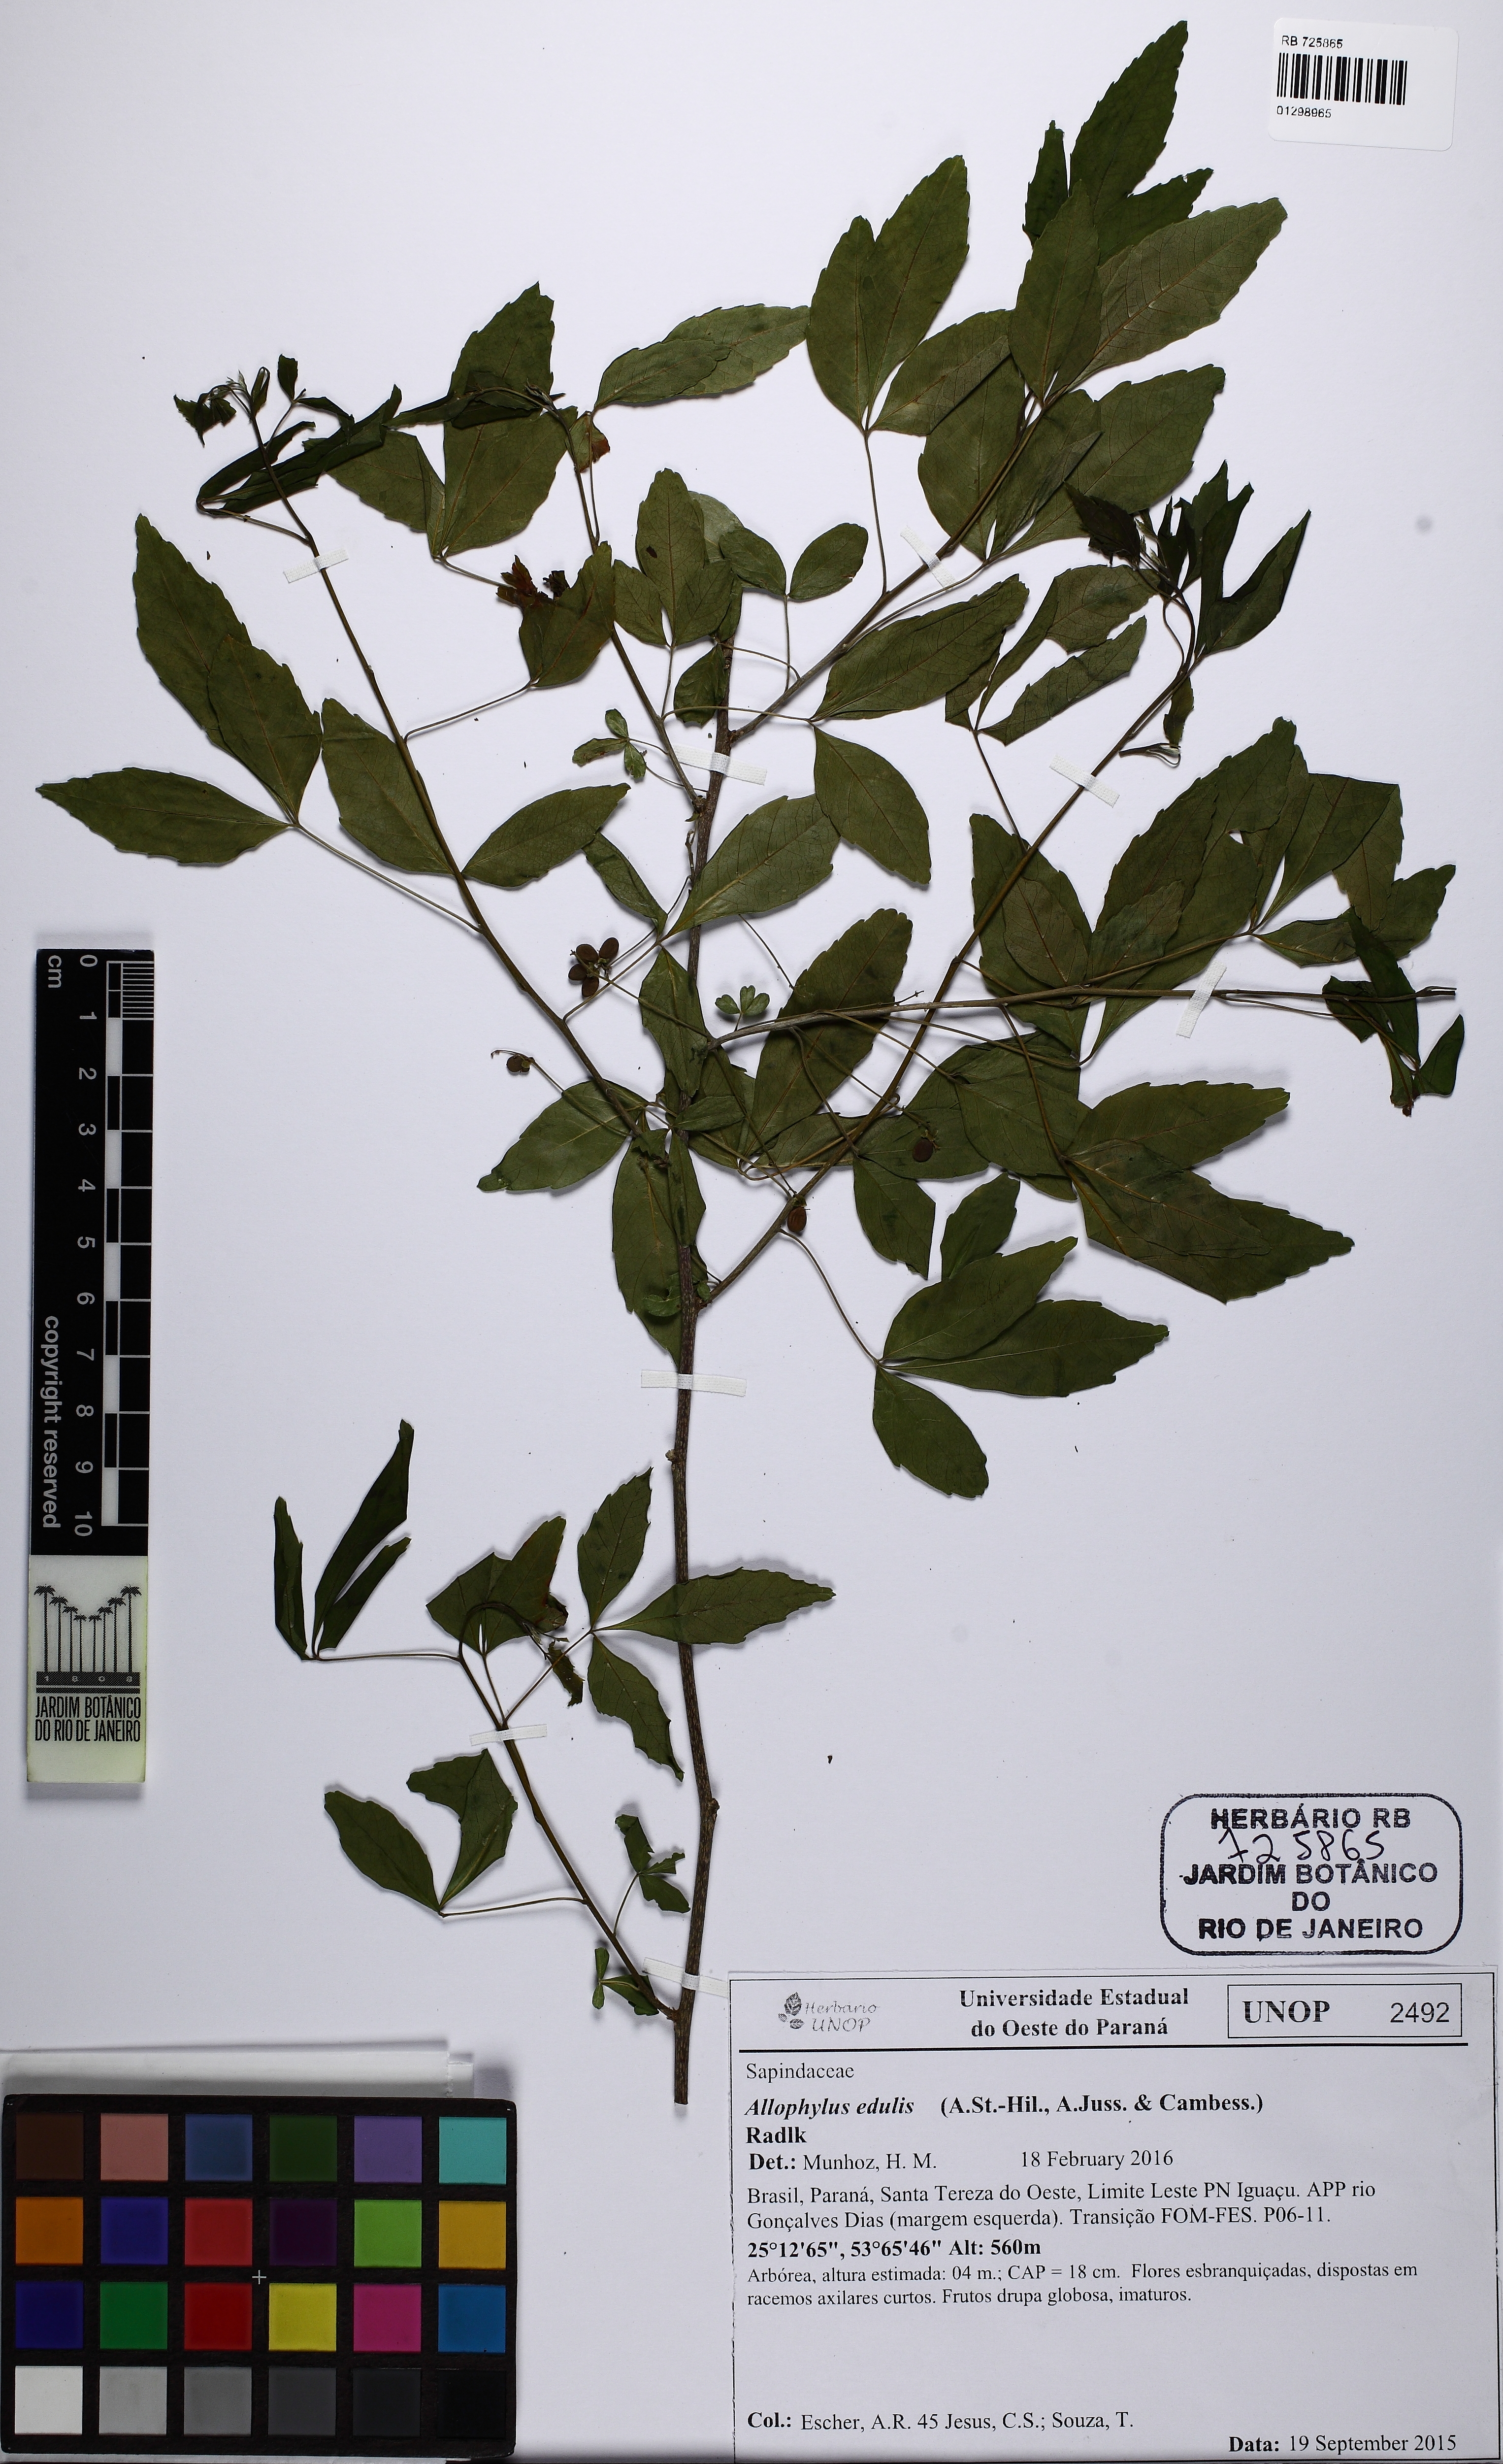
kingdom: Plantae
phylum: Tracheophyta
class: Magnoliopsida
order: Sapindales
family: Sapindaceae
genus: Allophylus
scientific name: Allophylus edulis
